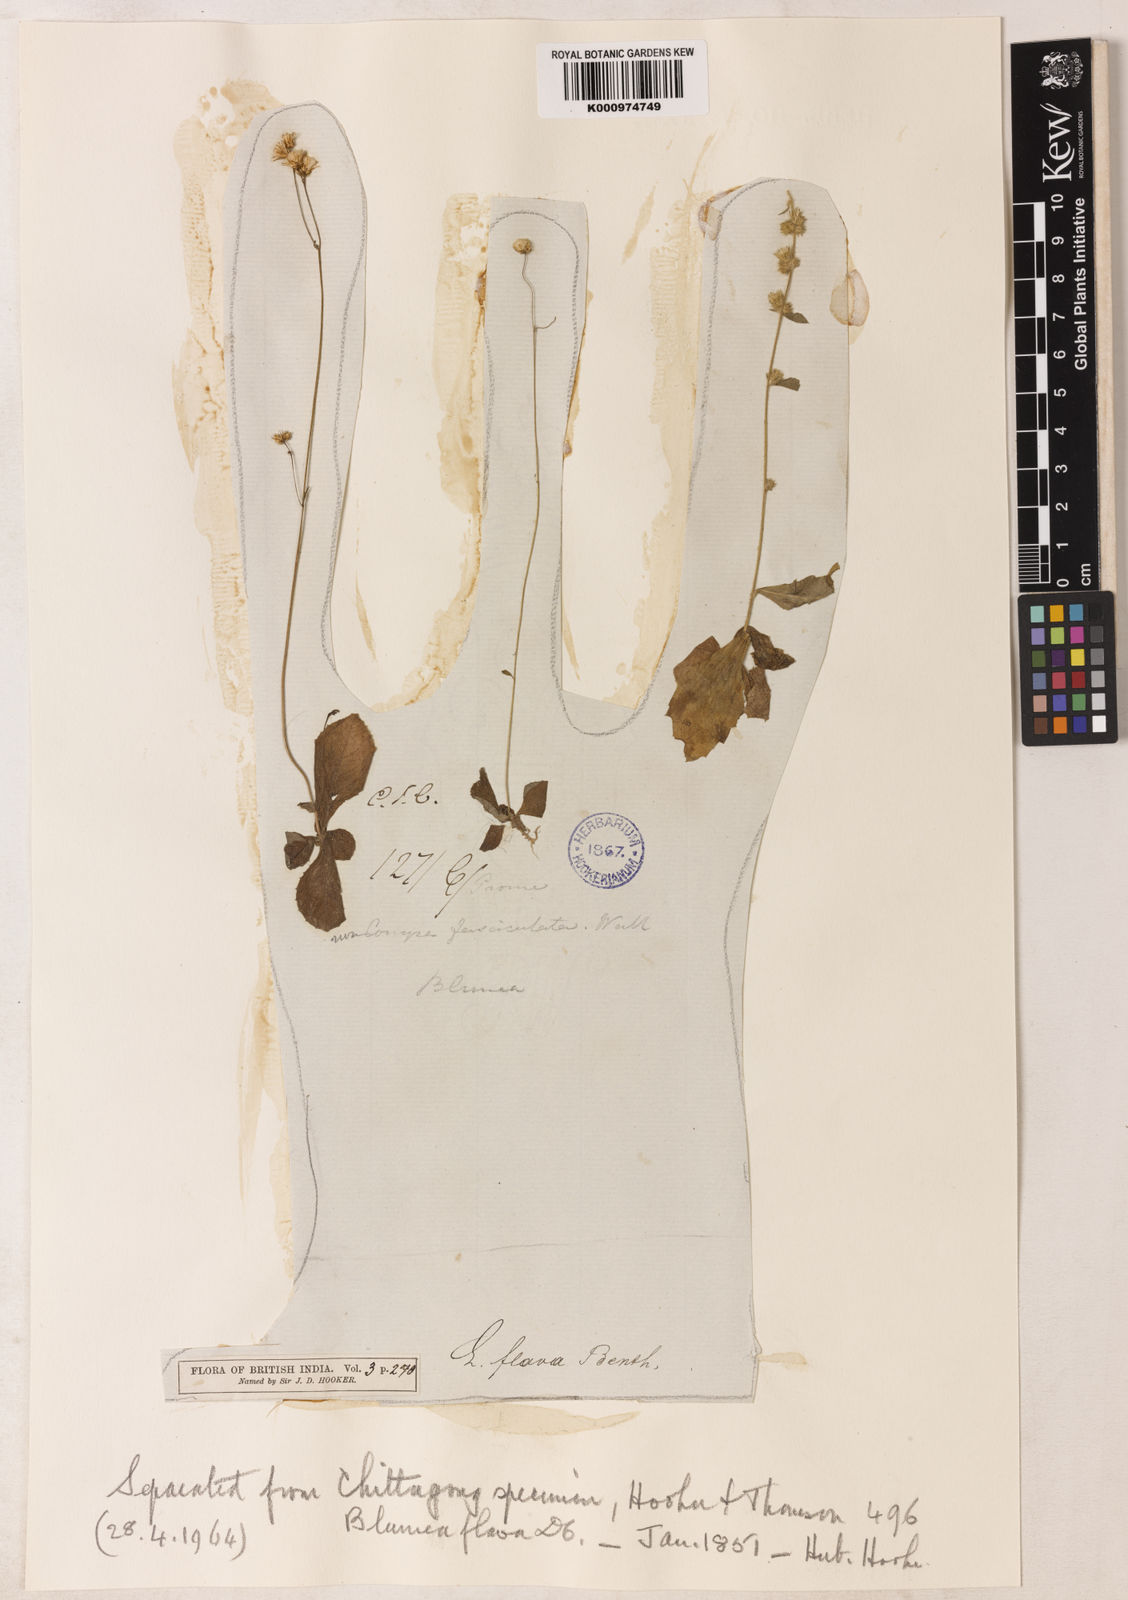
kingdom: Plantae
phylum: Tracheophyta
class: Magnoliopsida
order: Asterales
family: Asteraceae
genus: Blumeopsis
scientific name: Blumeopsis flava
